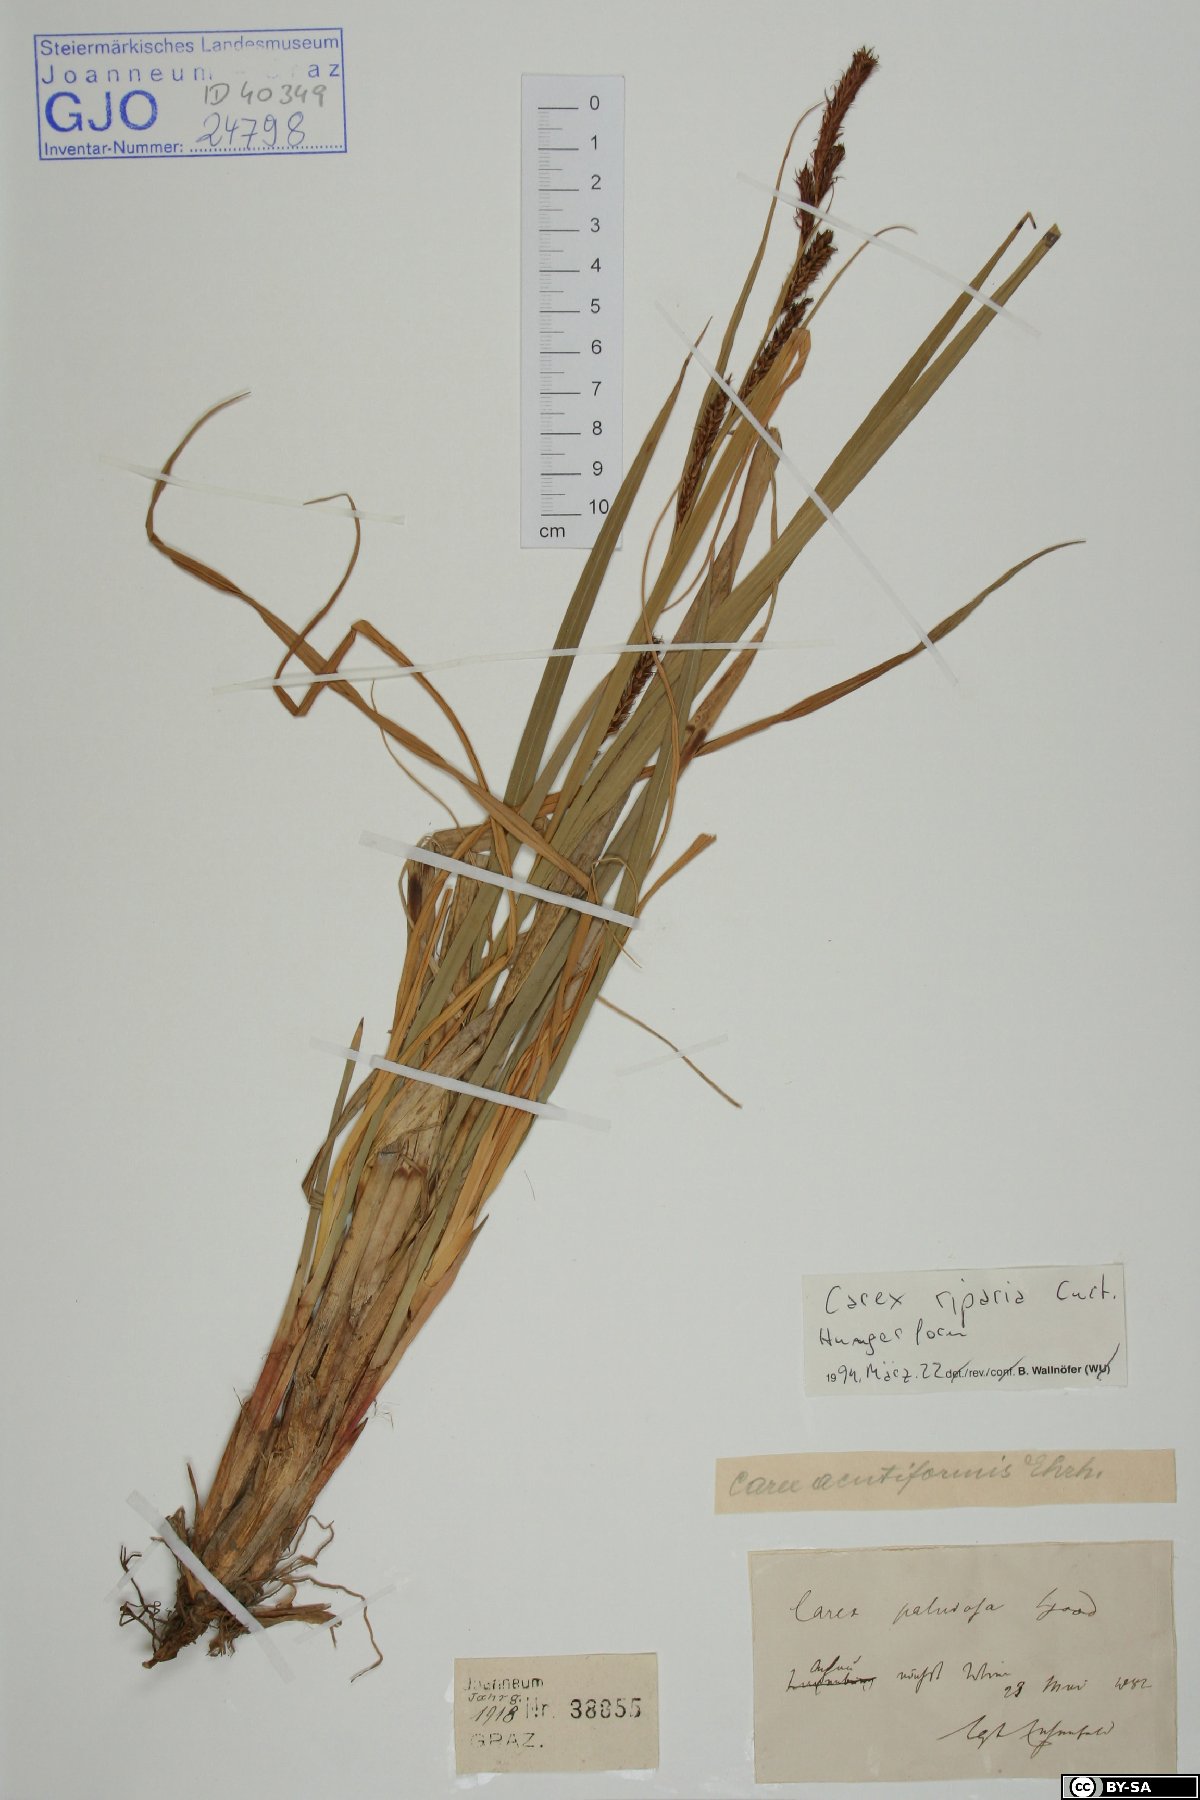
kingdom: Plantae
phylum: Tracheophyta
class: Liliopsida
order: Poales
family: Cyperaceae
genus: Carex
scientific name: Carex riparia
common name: Greater pond-sedge
